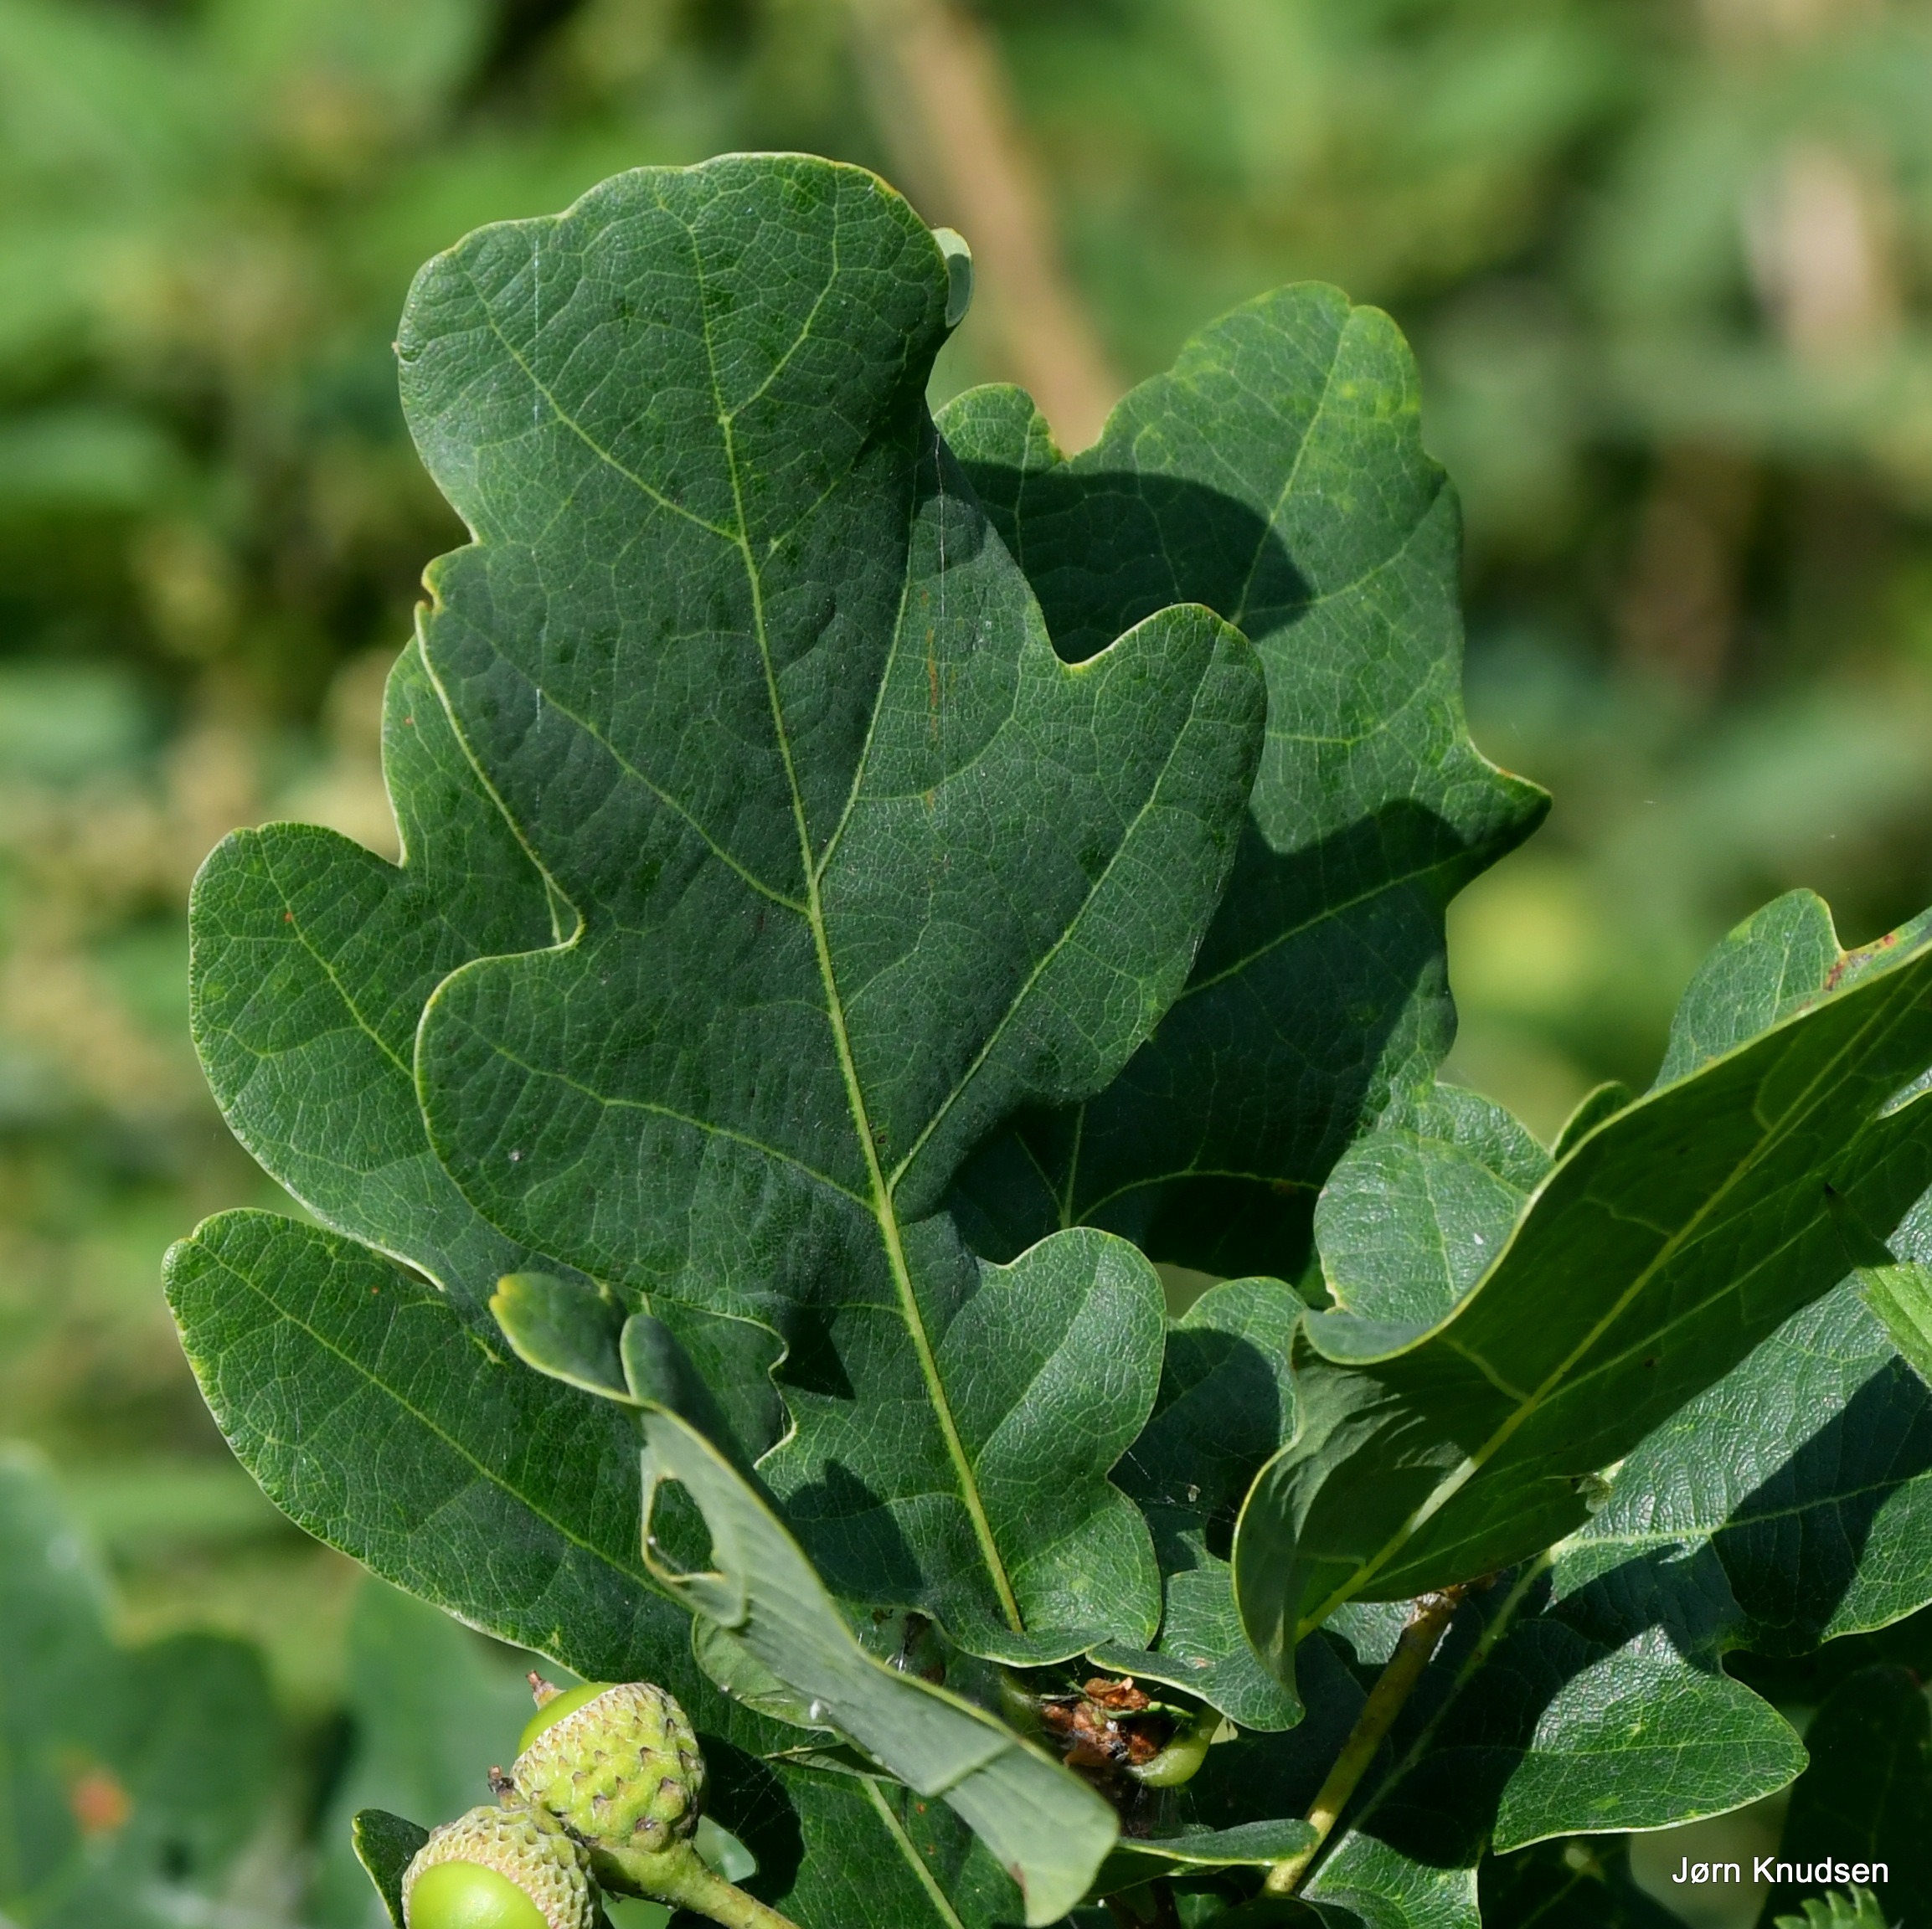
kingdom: Plantae
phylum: Tracheophyta
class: Magnoliopsida
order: Fagales
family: Fagaceae
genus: Quercus
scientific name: Quercus robur
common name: Stilk-eg/almindelig eg
